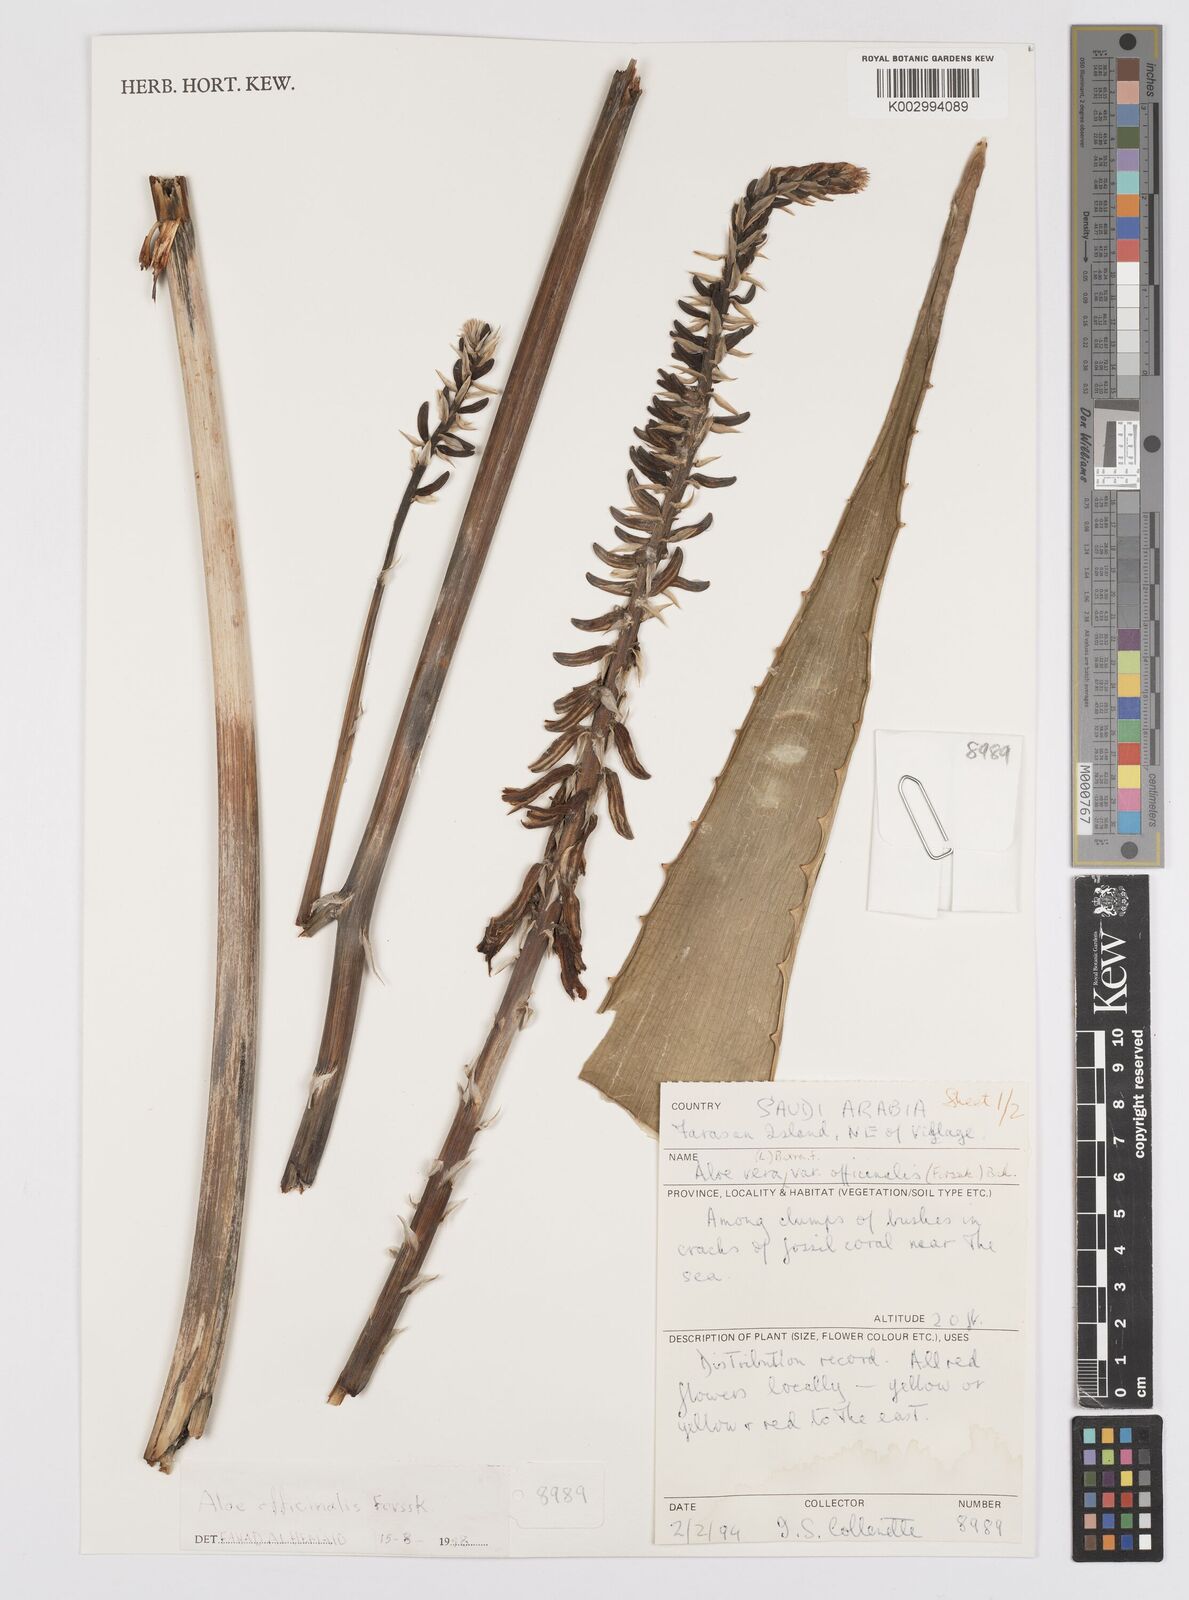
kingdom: Plantae
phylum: Tracheophyta
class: Liliopsida
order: Asparagales
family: Asphodelaceae
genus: Aloe
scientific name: Aloe vera
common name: Barbados aloe
